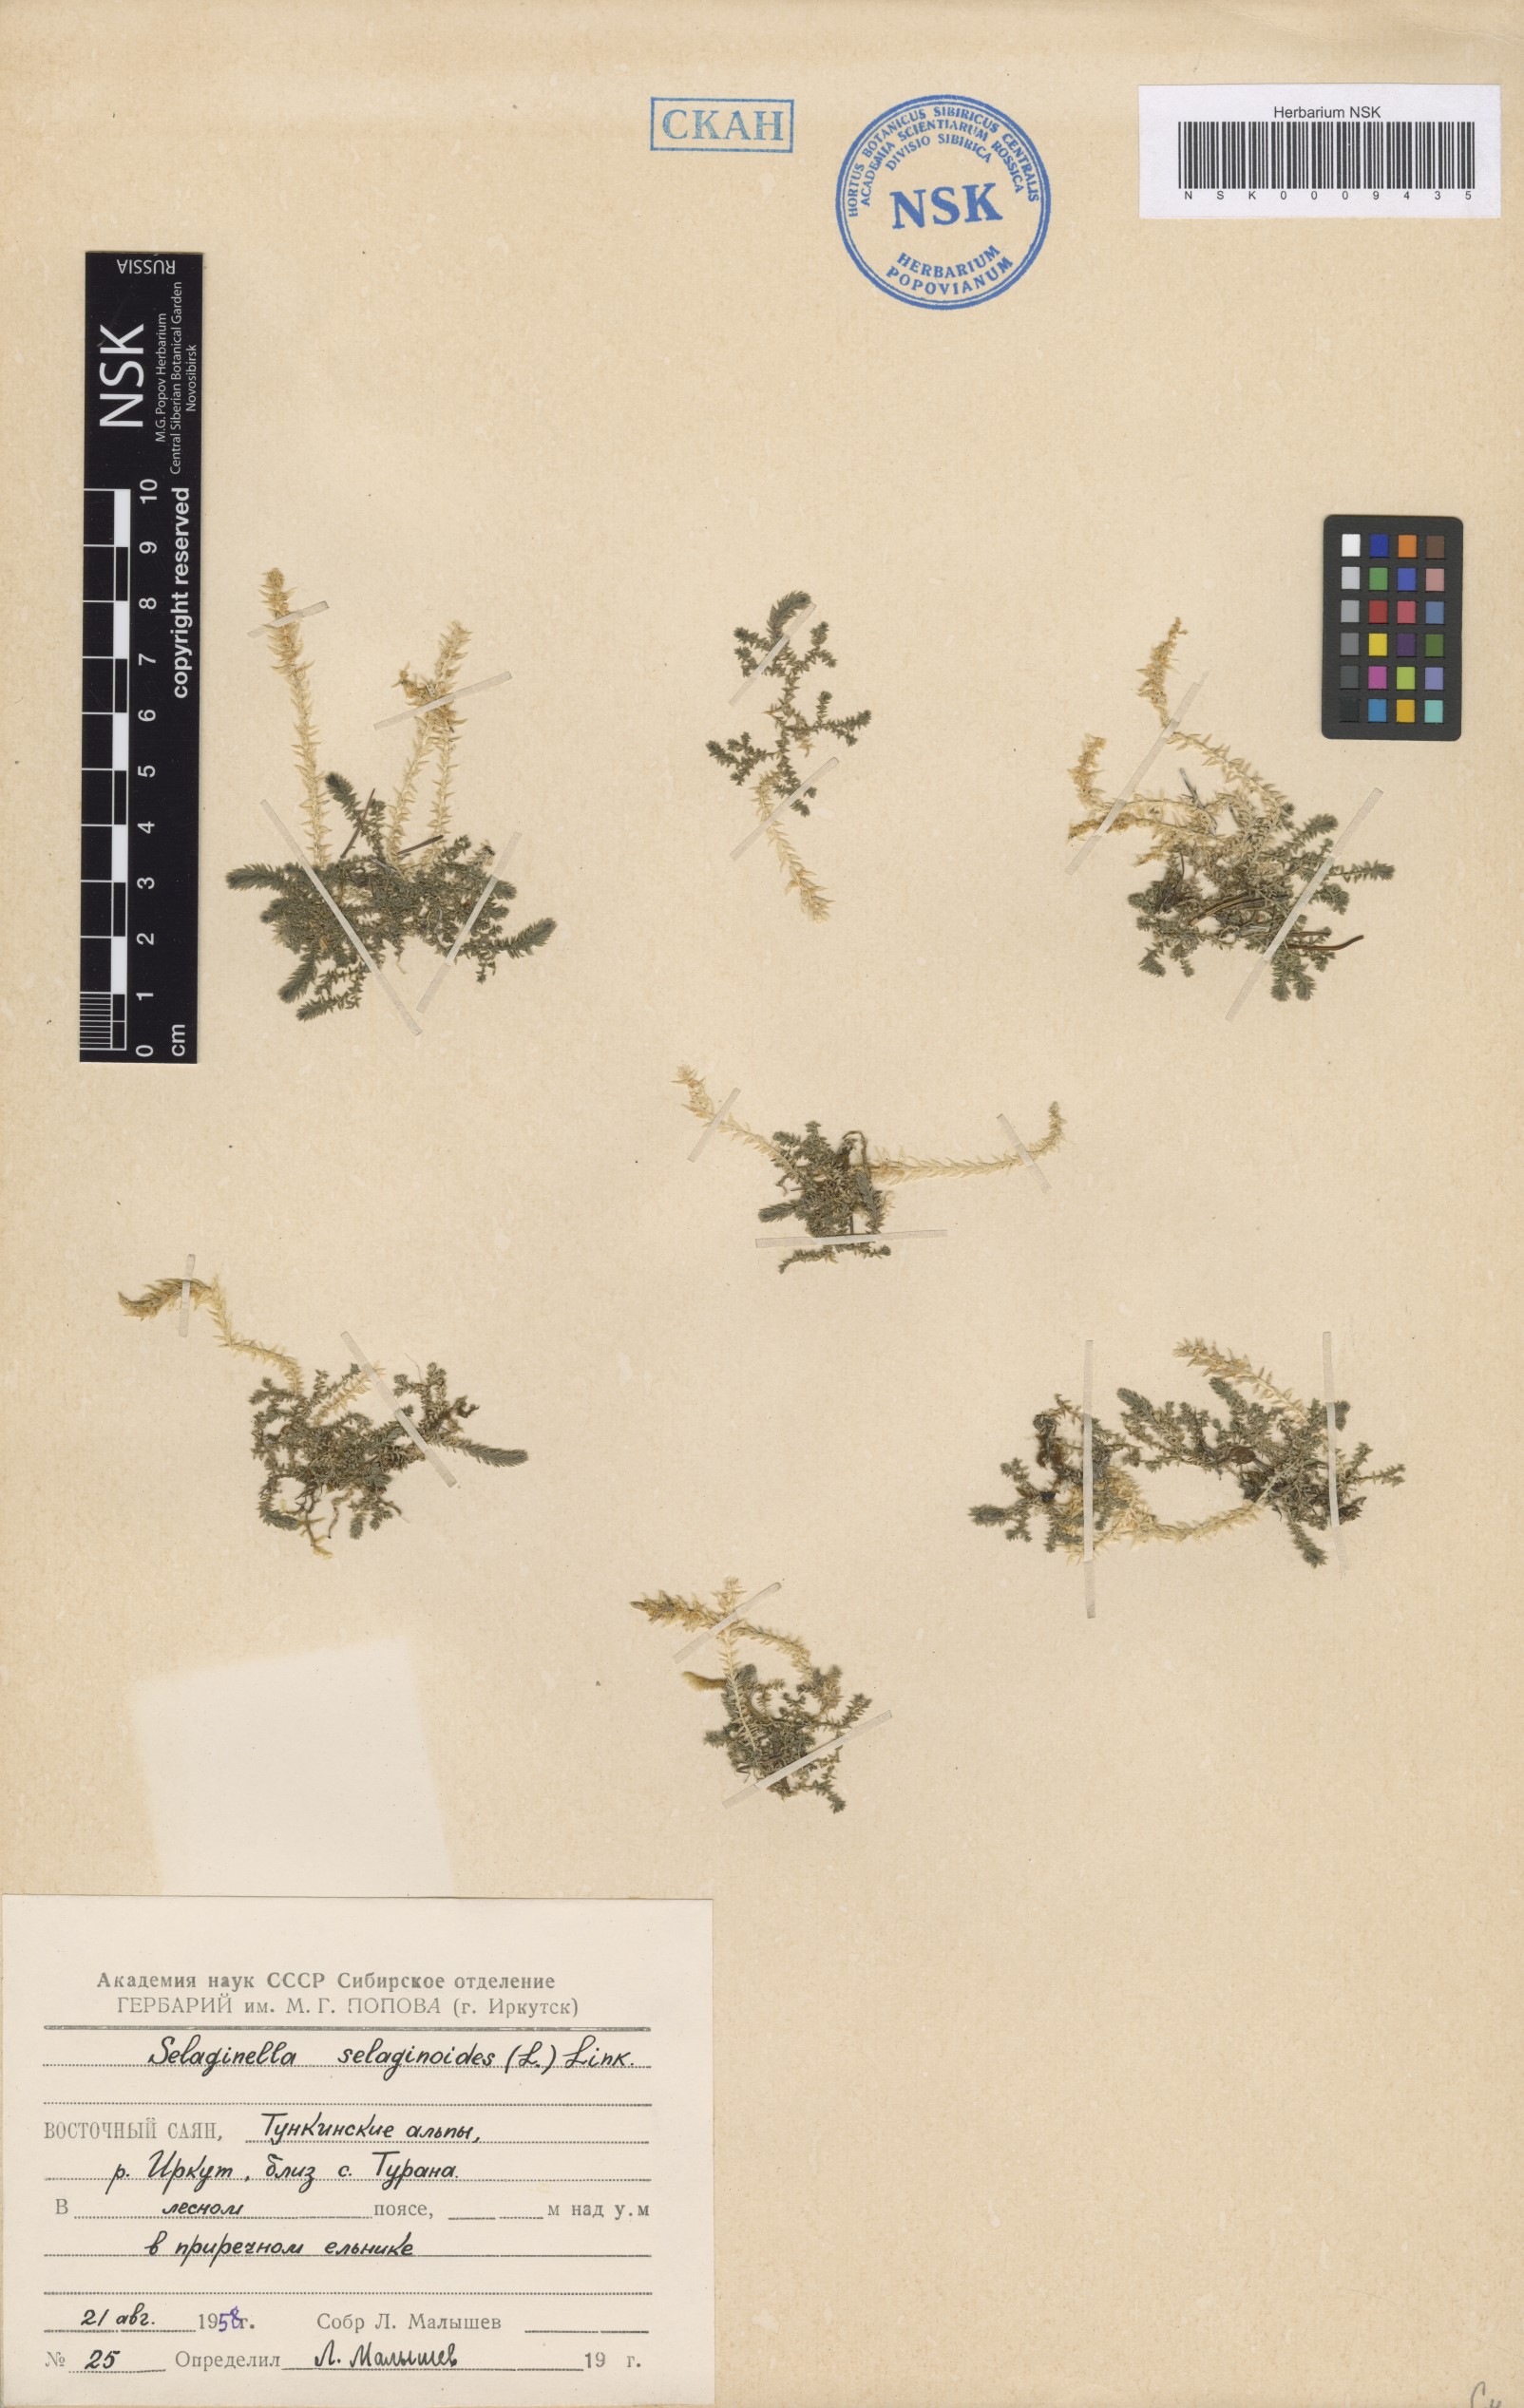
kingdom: Plantae
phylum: Tracheophyta
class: Lycopodiopsida
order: Selaginellales
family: Selaginellaceae
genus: Selaginella
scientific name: Selaginella selaginoides
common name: Prickly mountain-moss
